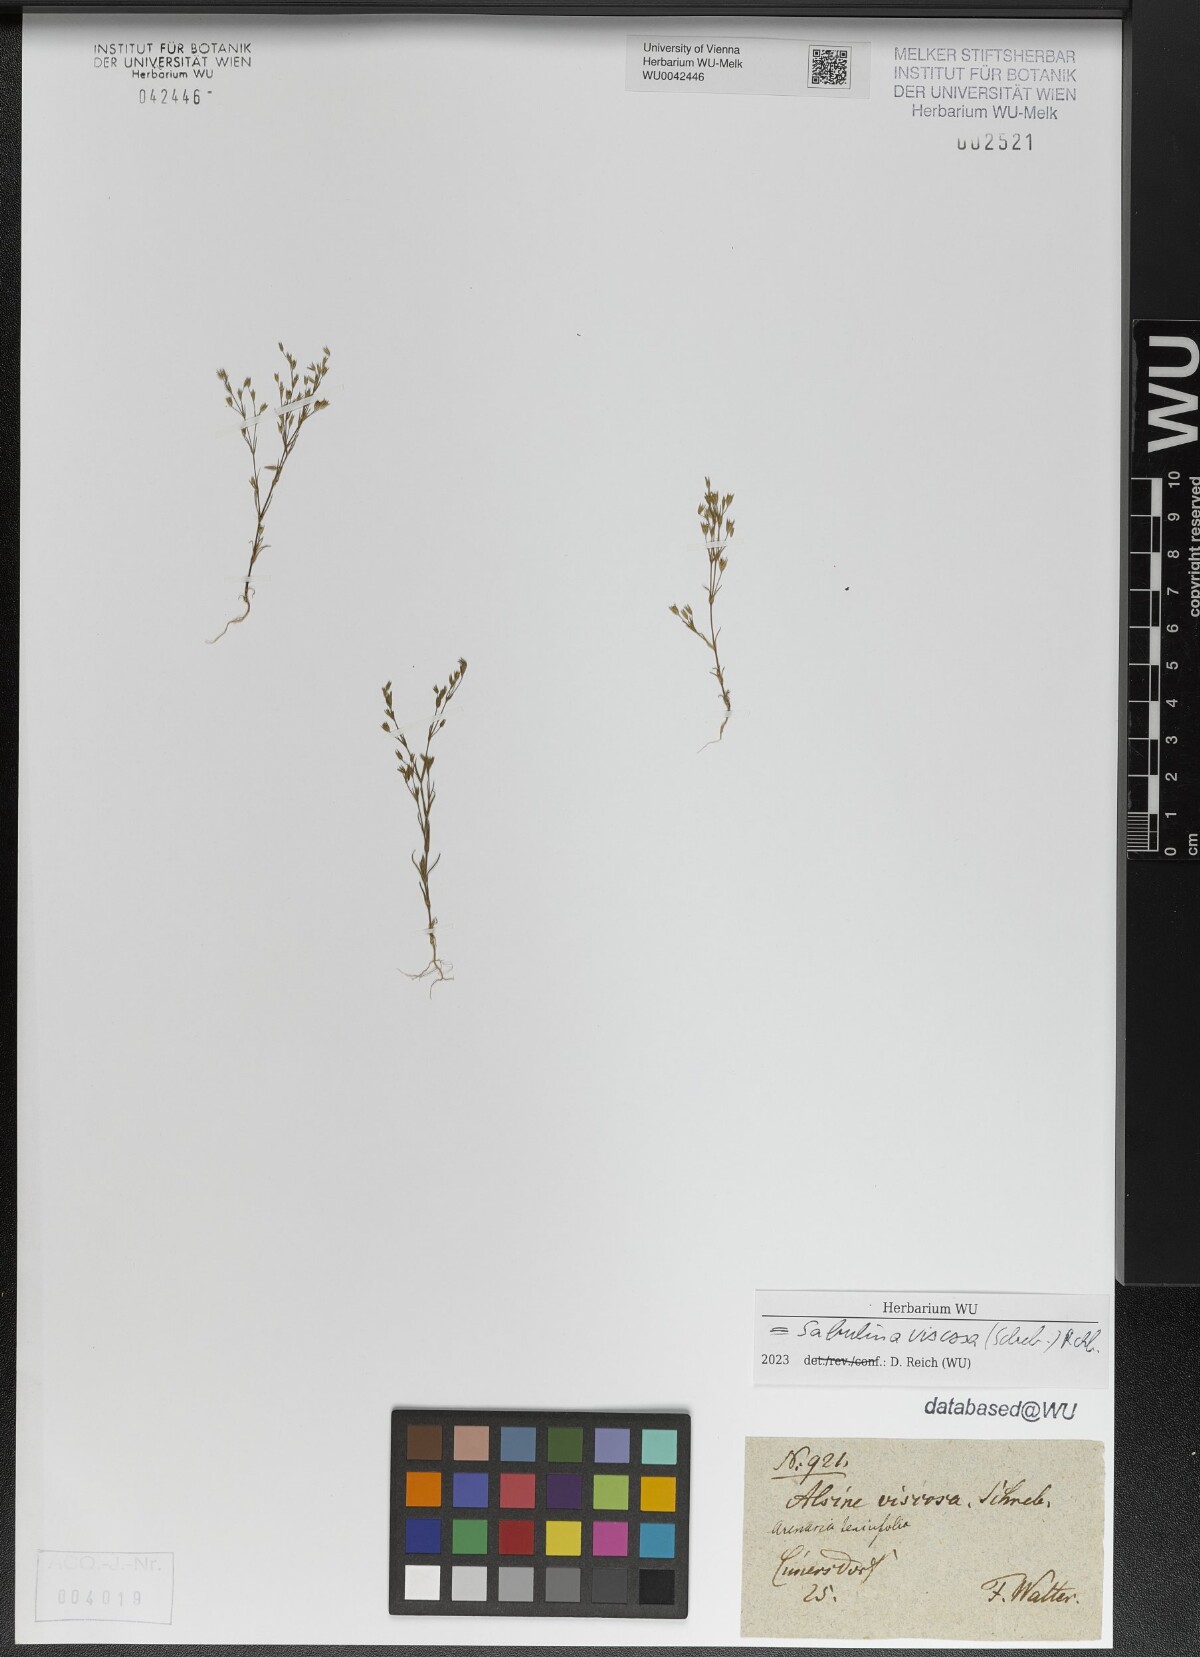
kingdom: Plantae
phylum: Tracheophyta
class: Magnoliopsida
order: Caryophyllales
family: Caryophyllaceae
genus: Sabulina
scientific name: Sabulina viscosa
